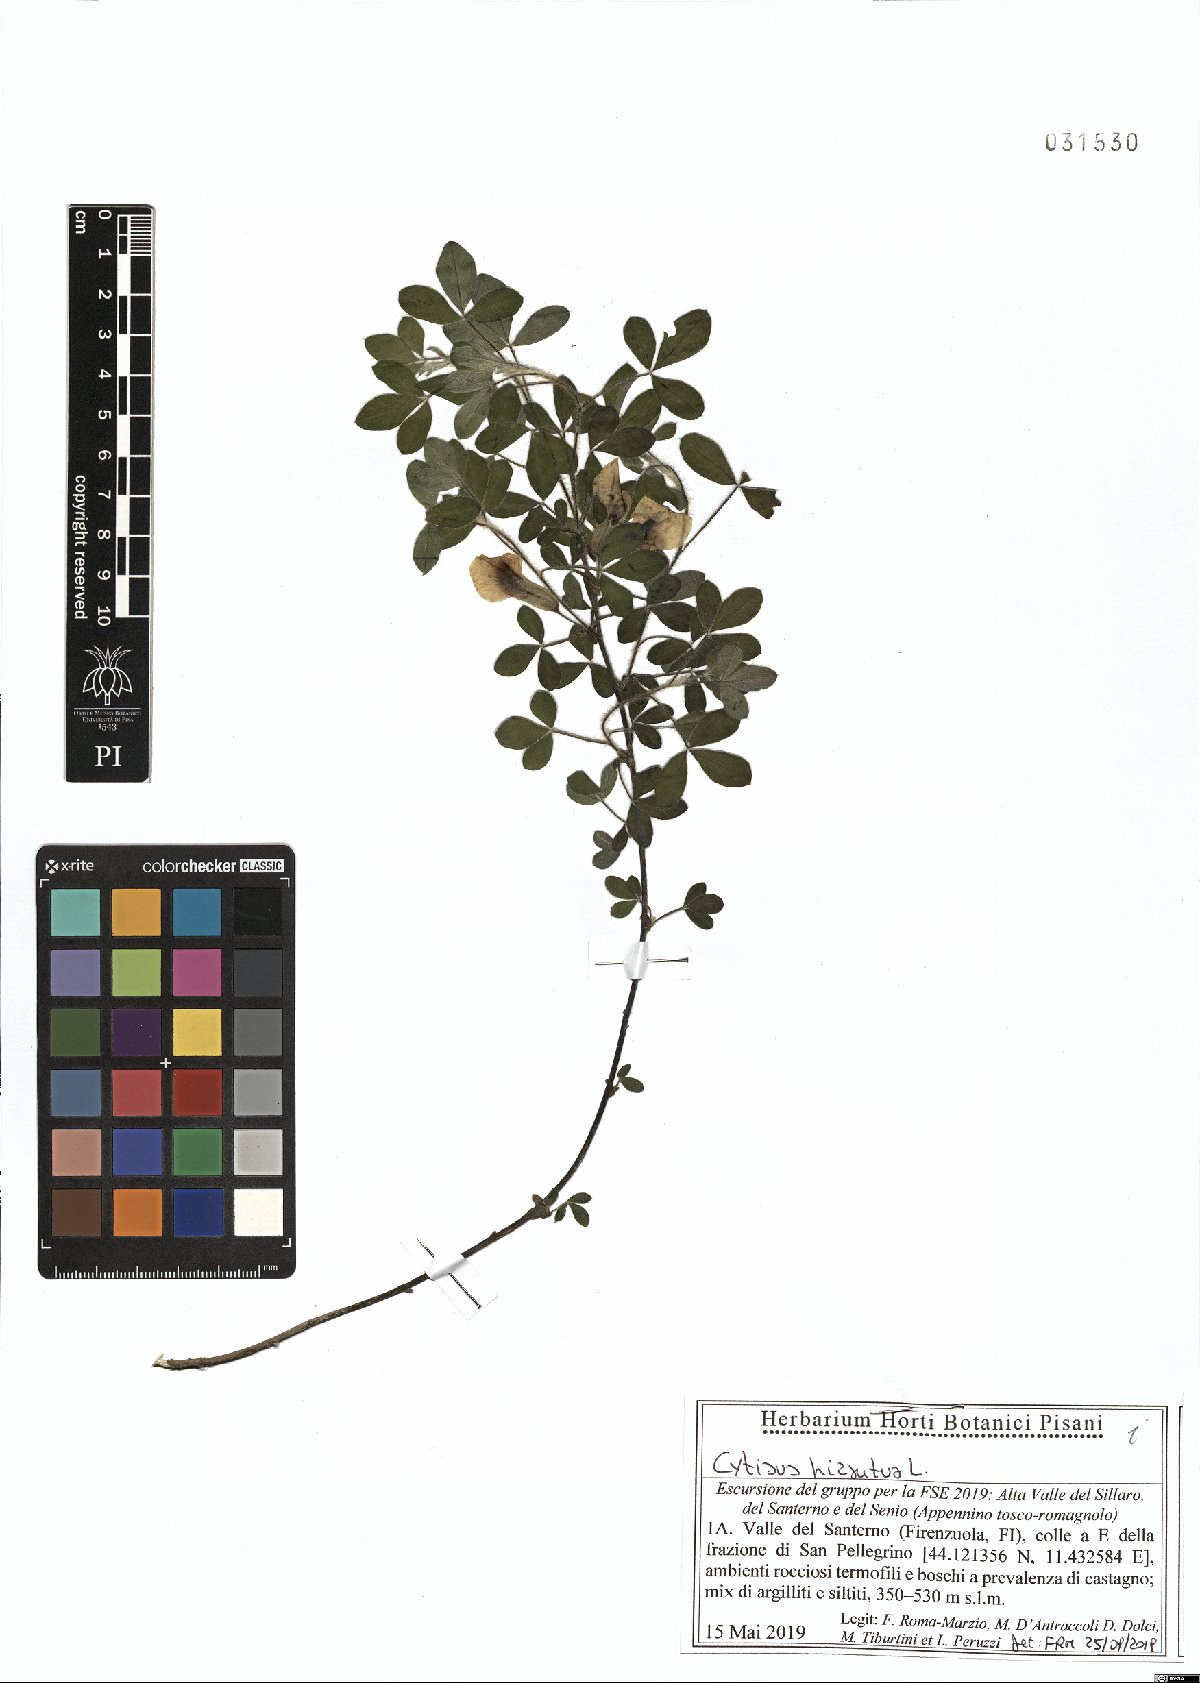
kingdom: Plantae
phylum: Tracheophyta
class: Magnoliopsida
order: Fabales
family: Fabaceae
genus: Chamaecytisus
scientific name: Chamaecytisus hirsutus
